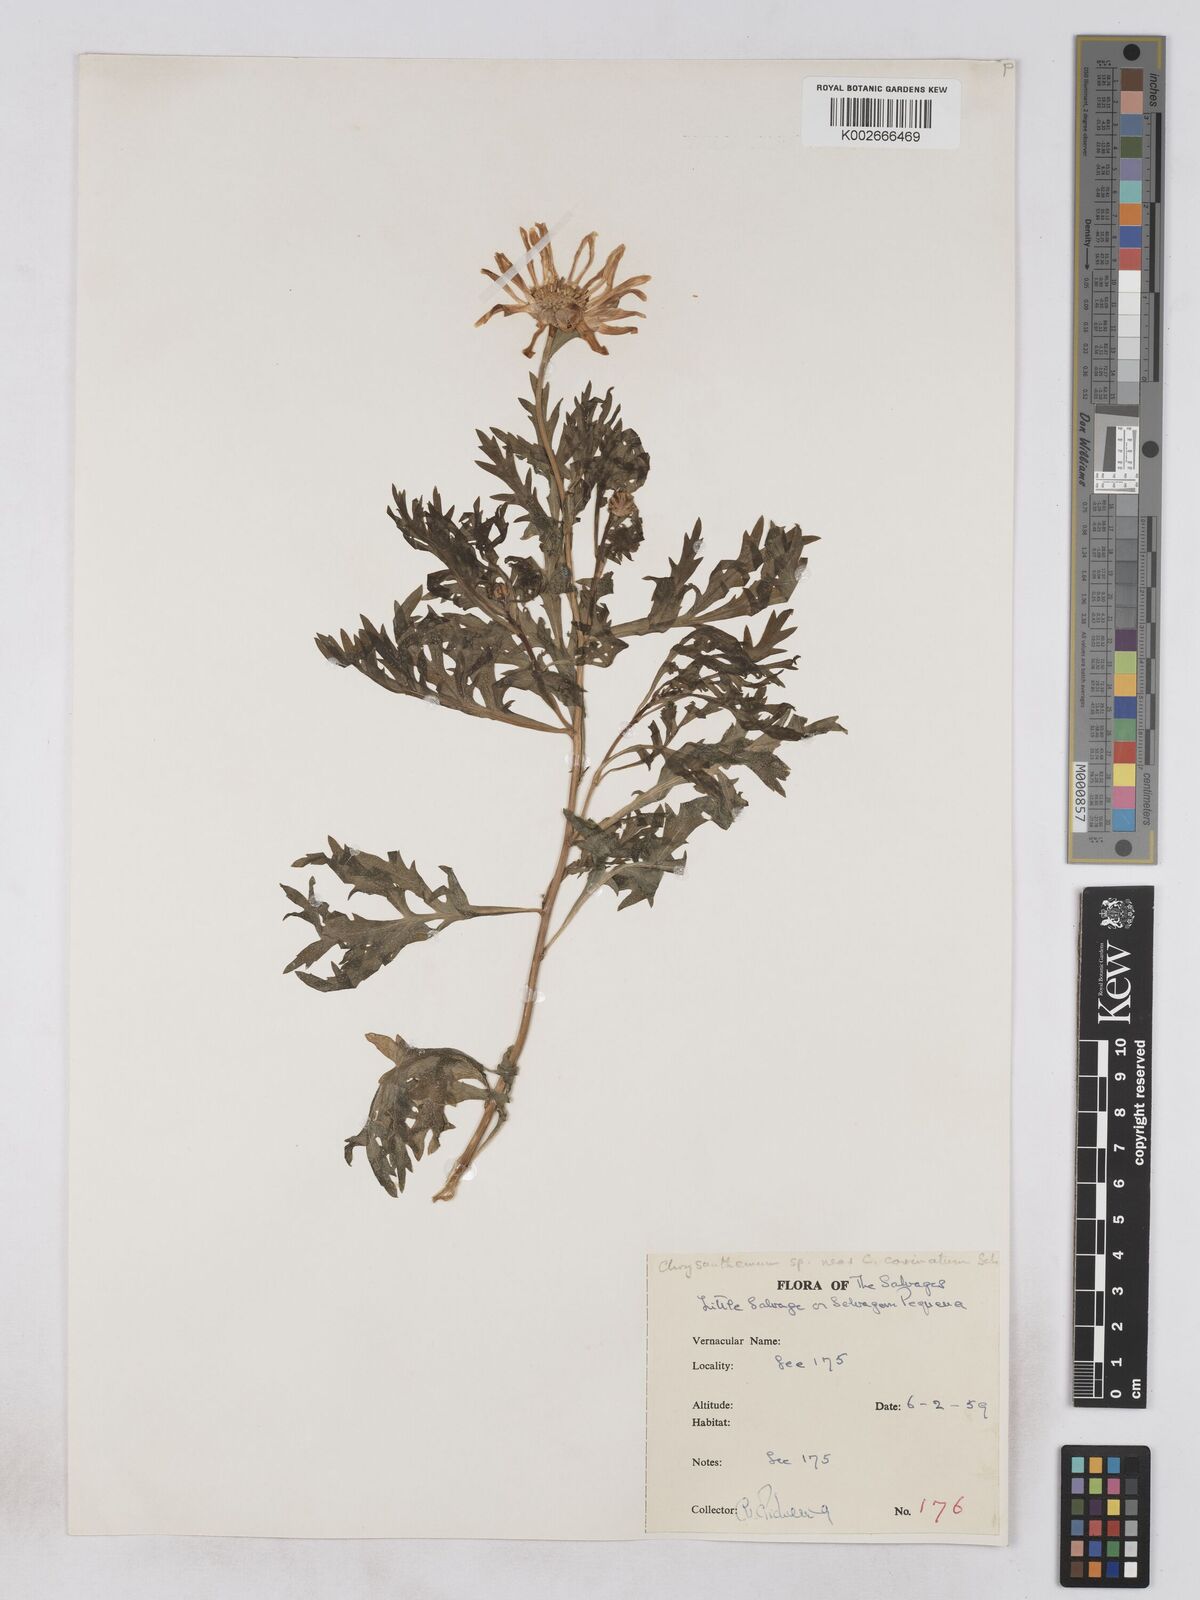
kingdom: Plantae
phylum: Tracheophyta
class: Magnoliopsida
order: Asterales
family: Asteraceae
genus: Argyranthemum
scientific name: Argyranthemum thalassophilum
